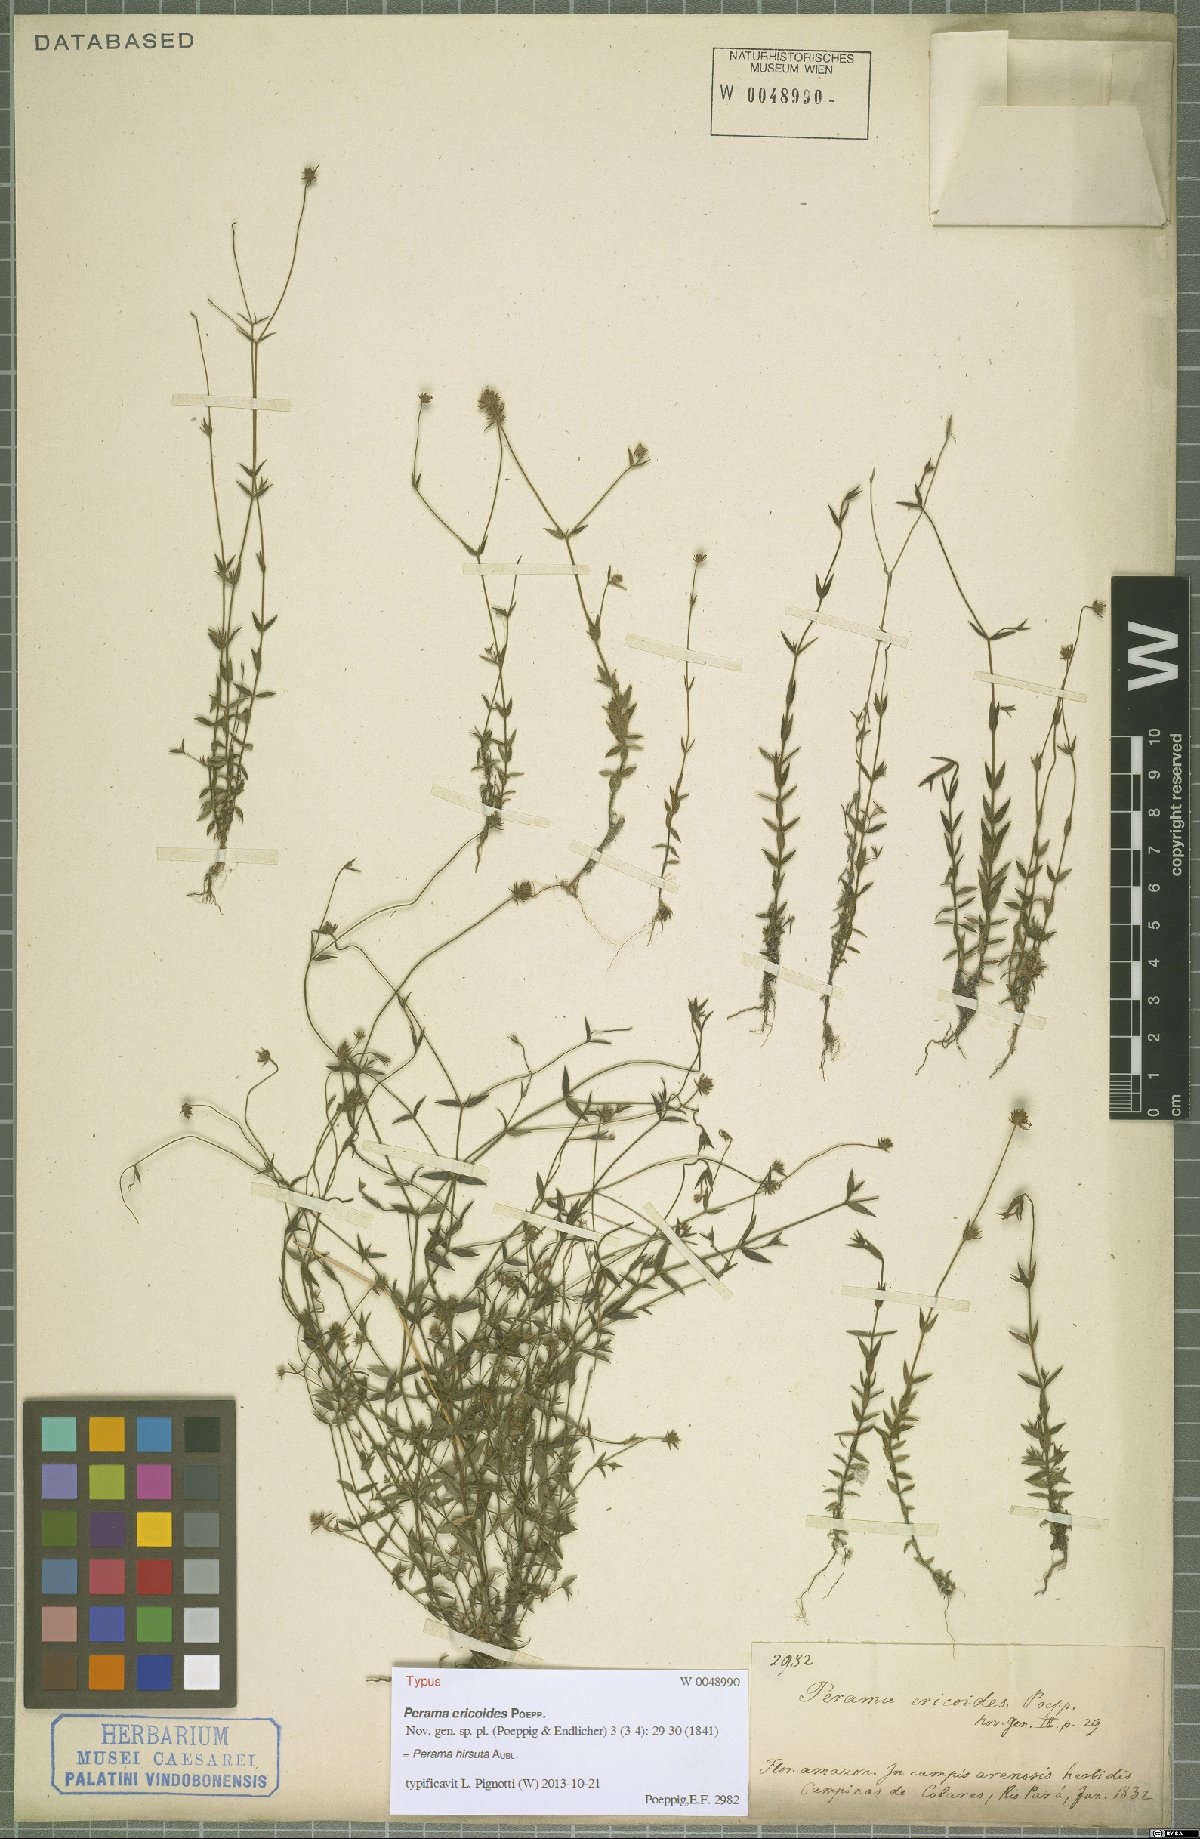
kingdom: Plantae
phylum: Tracheophyta
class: Magnoliopsida
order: Gentianales
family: Rubiaceae
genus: Perama
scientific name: Perama hirsuta
